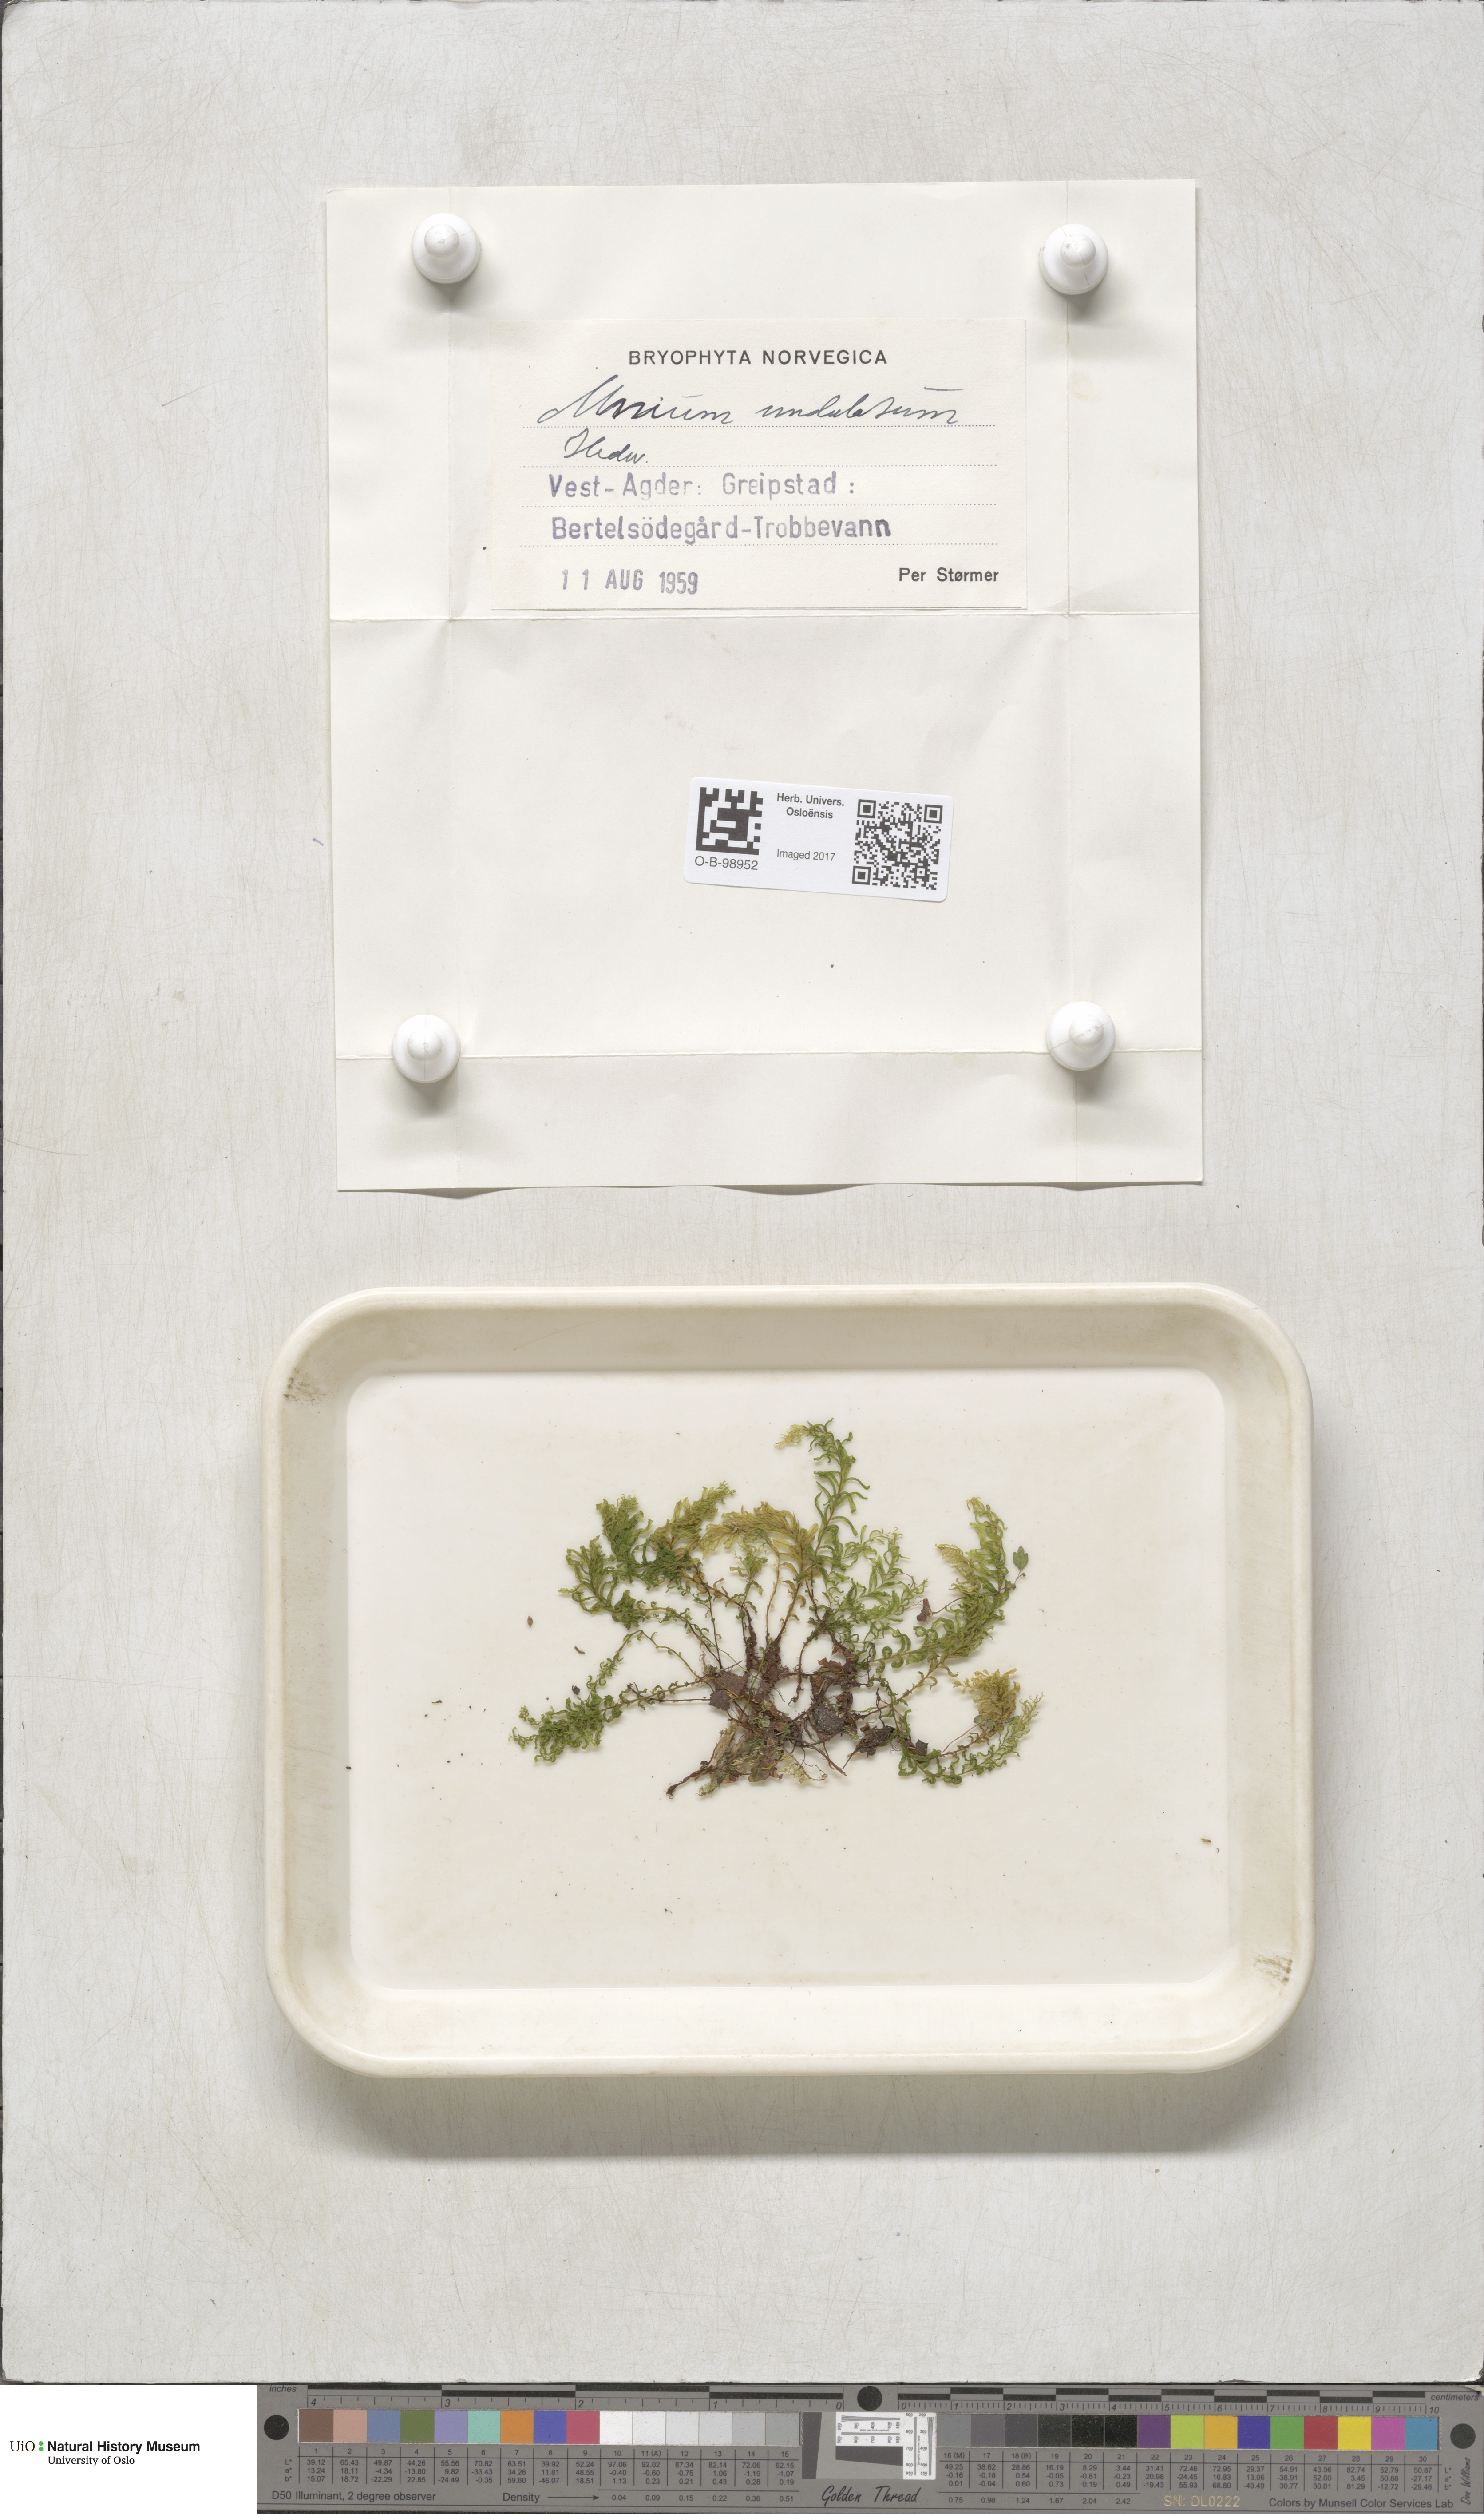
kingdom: Plantae
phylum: Bryophyta
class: Bryopsida
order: Bryales
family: Mniaceae
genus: Plagiomnium
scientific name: Plagiomnium undulatum
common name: Hart's-tongue thyme-moss
